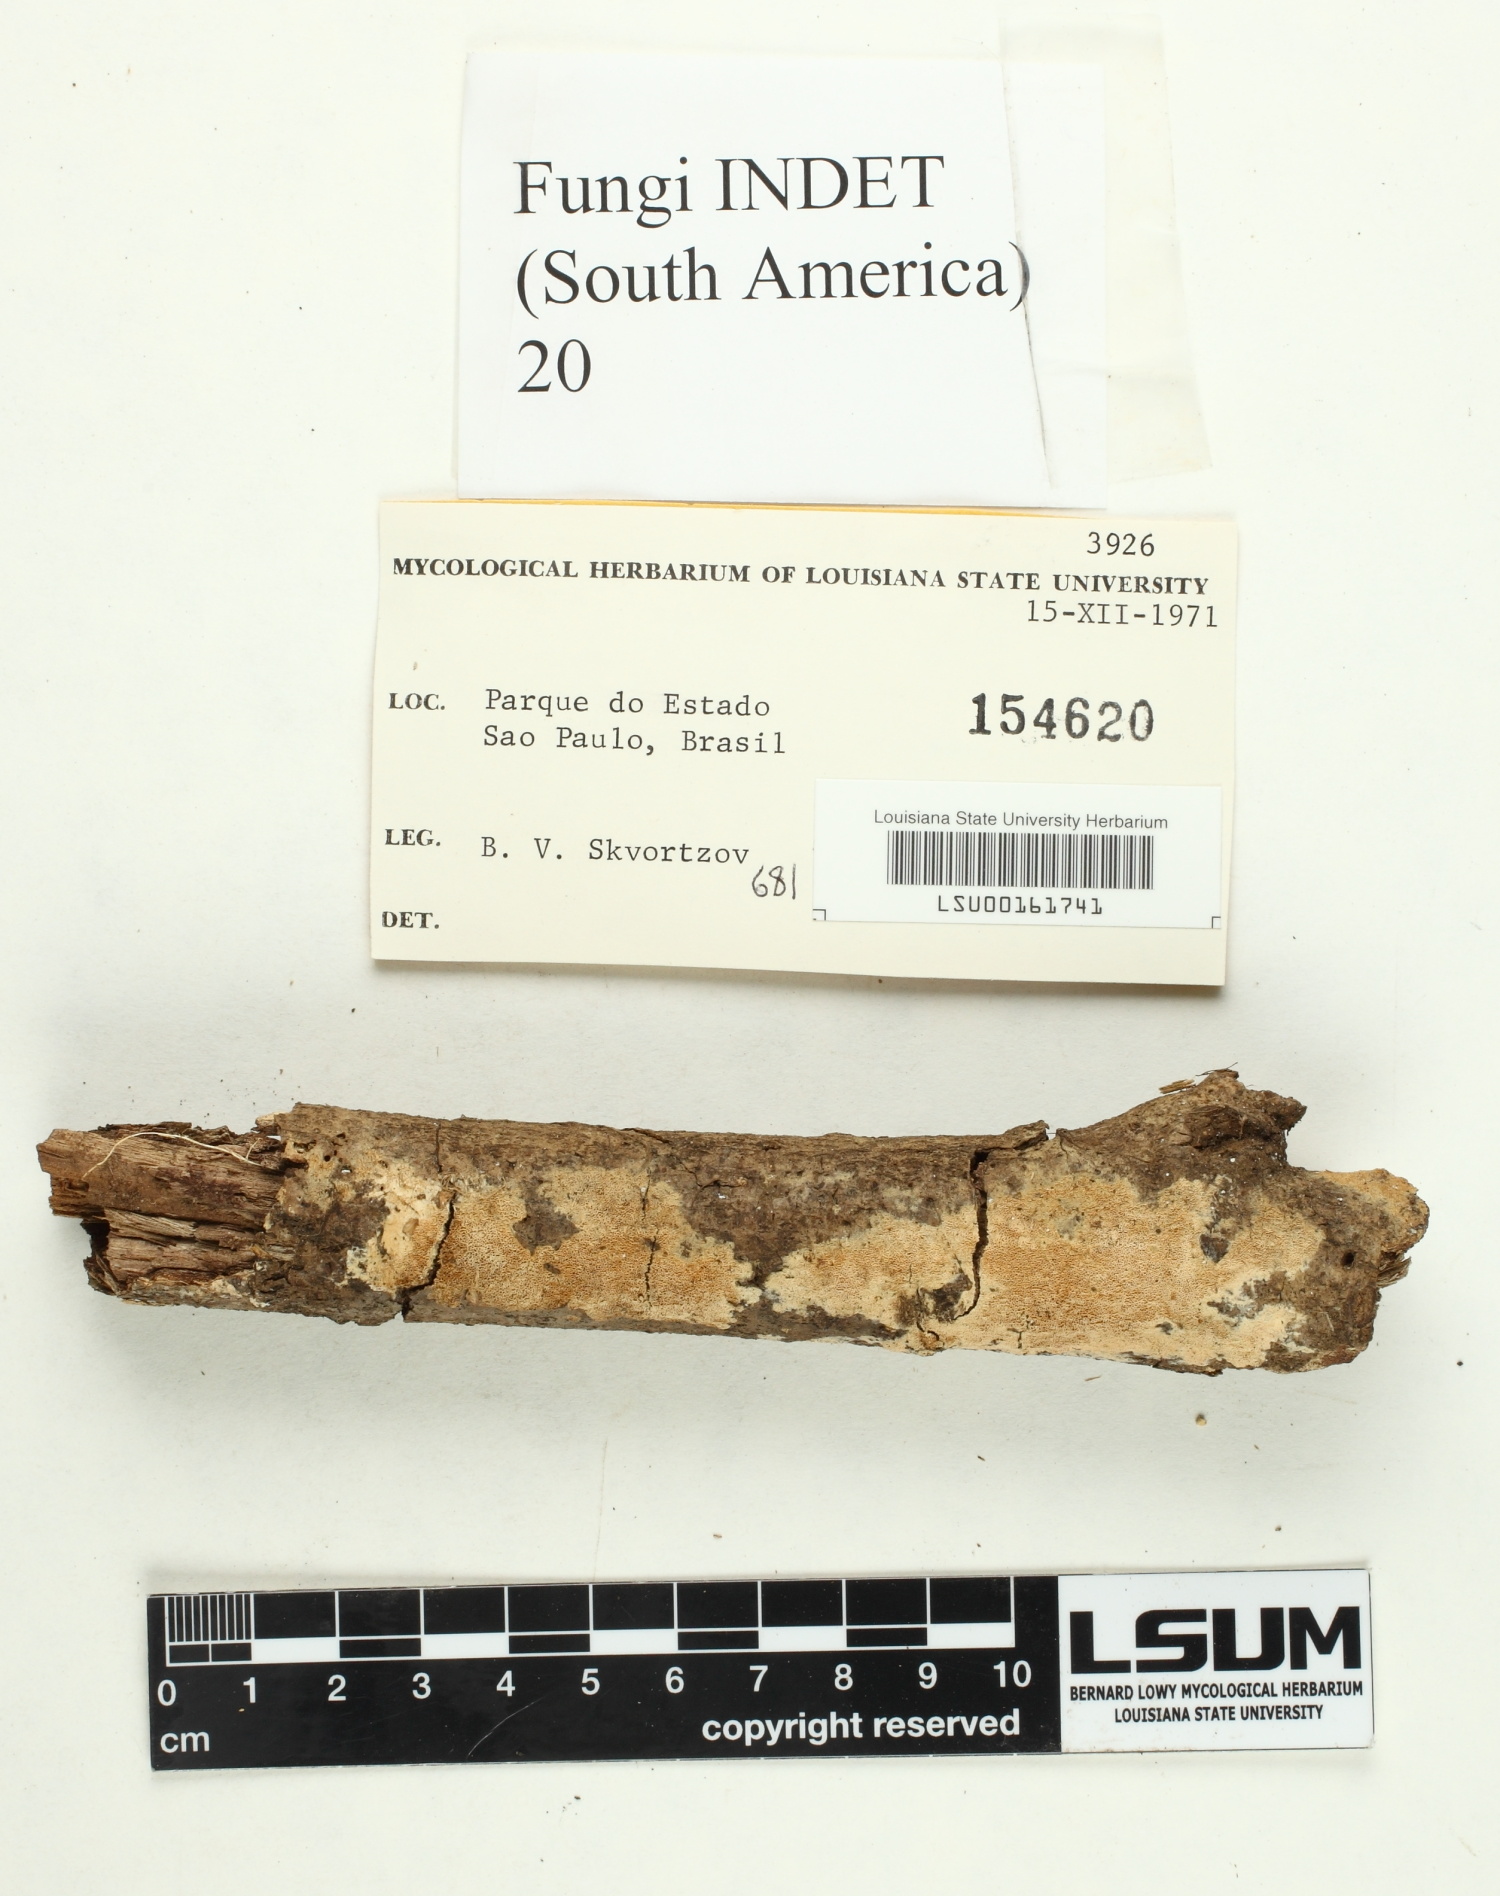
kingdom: Fungi
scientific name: Fungi
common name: Fungi
